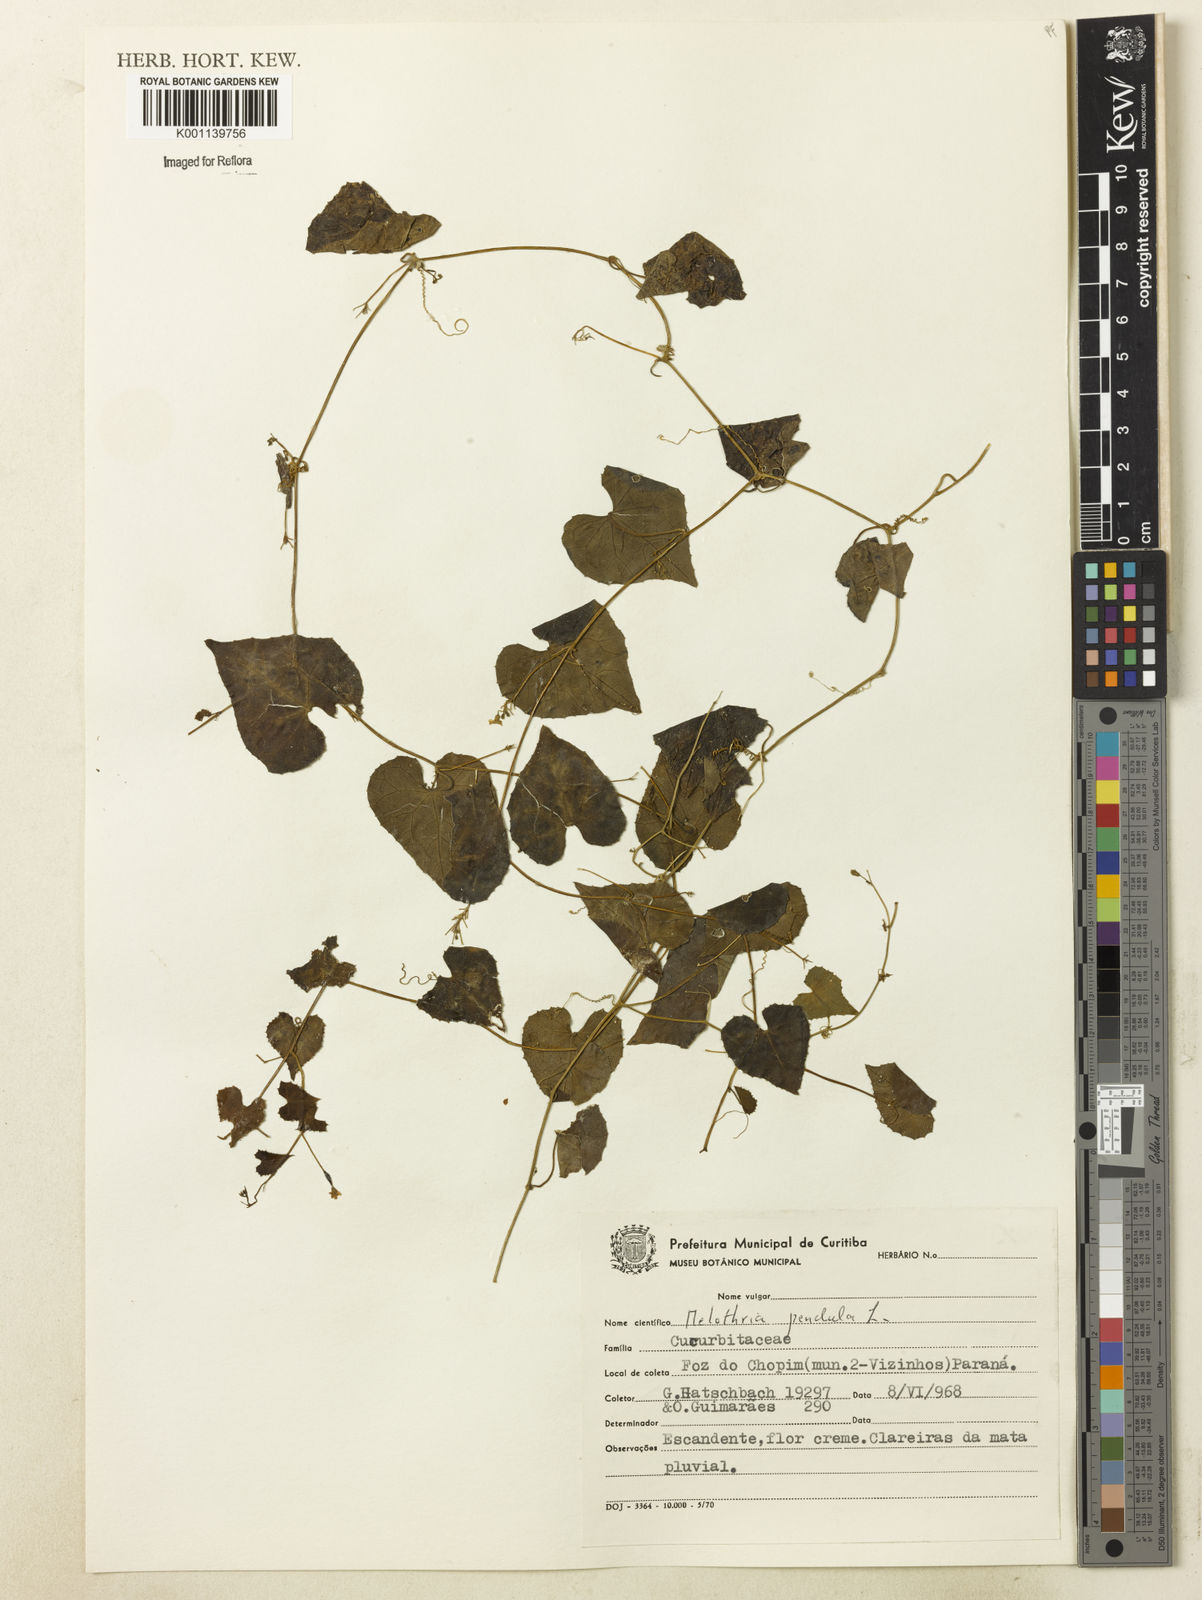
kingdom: Plantae
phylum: Tracheophyta
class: Magnoliopsida
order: Cucurbitales
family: Cucurbitaceae
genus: Melothria
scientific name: Melothria pendula
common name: Creeping-cucumber
